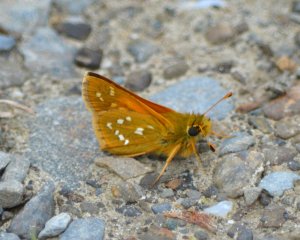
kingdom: Animalia
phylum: Arthropoda
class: Insecta
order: Lepidoptera
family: Hesperiidae
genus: Hesperia
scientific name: Hesperia comma
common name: Common Branded Skipper
